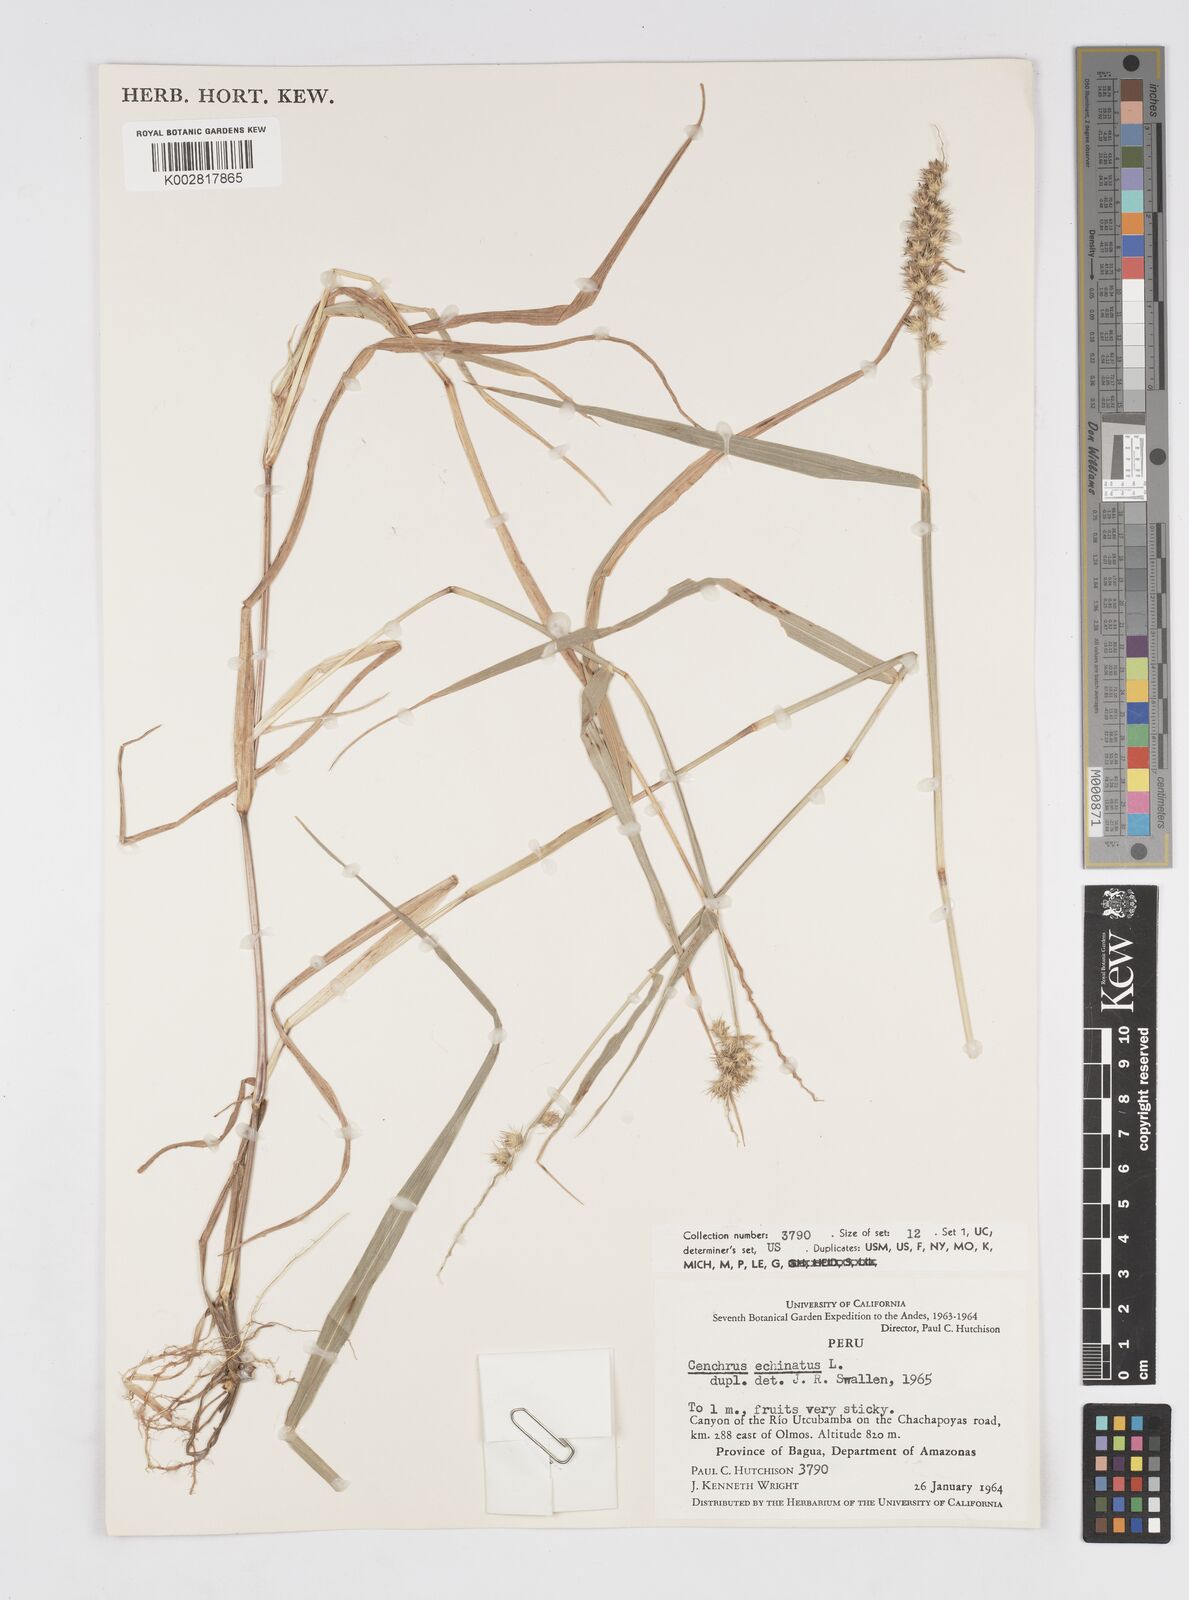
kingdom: Plantae
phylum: Tracheophyta
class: Liliopsida
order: Poales
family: Poaceae
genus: Cenchrus
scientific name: Cenchrus
